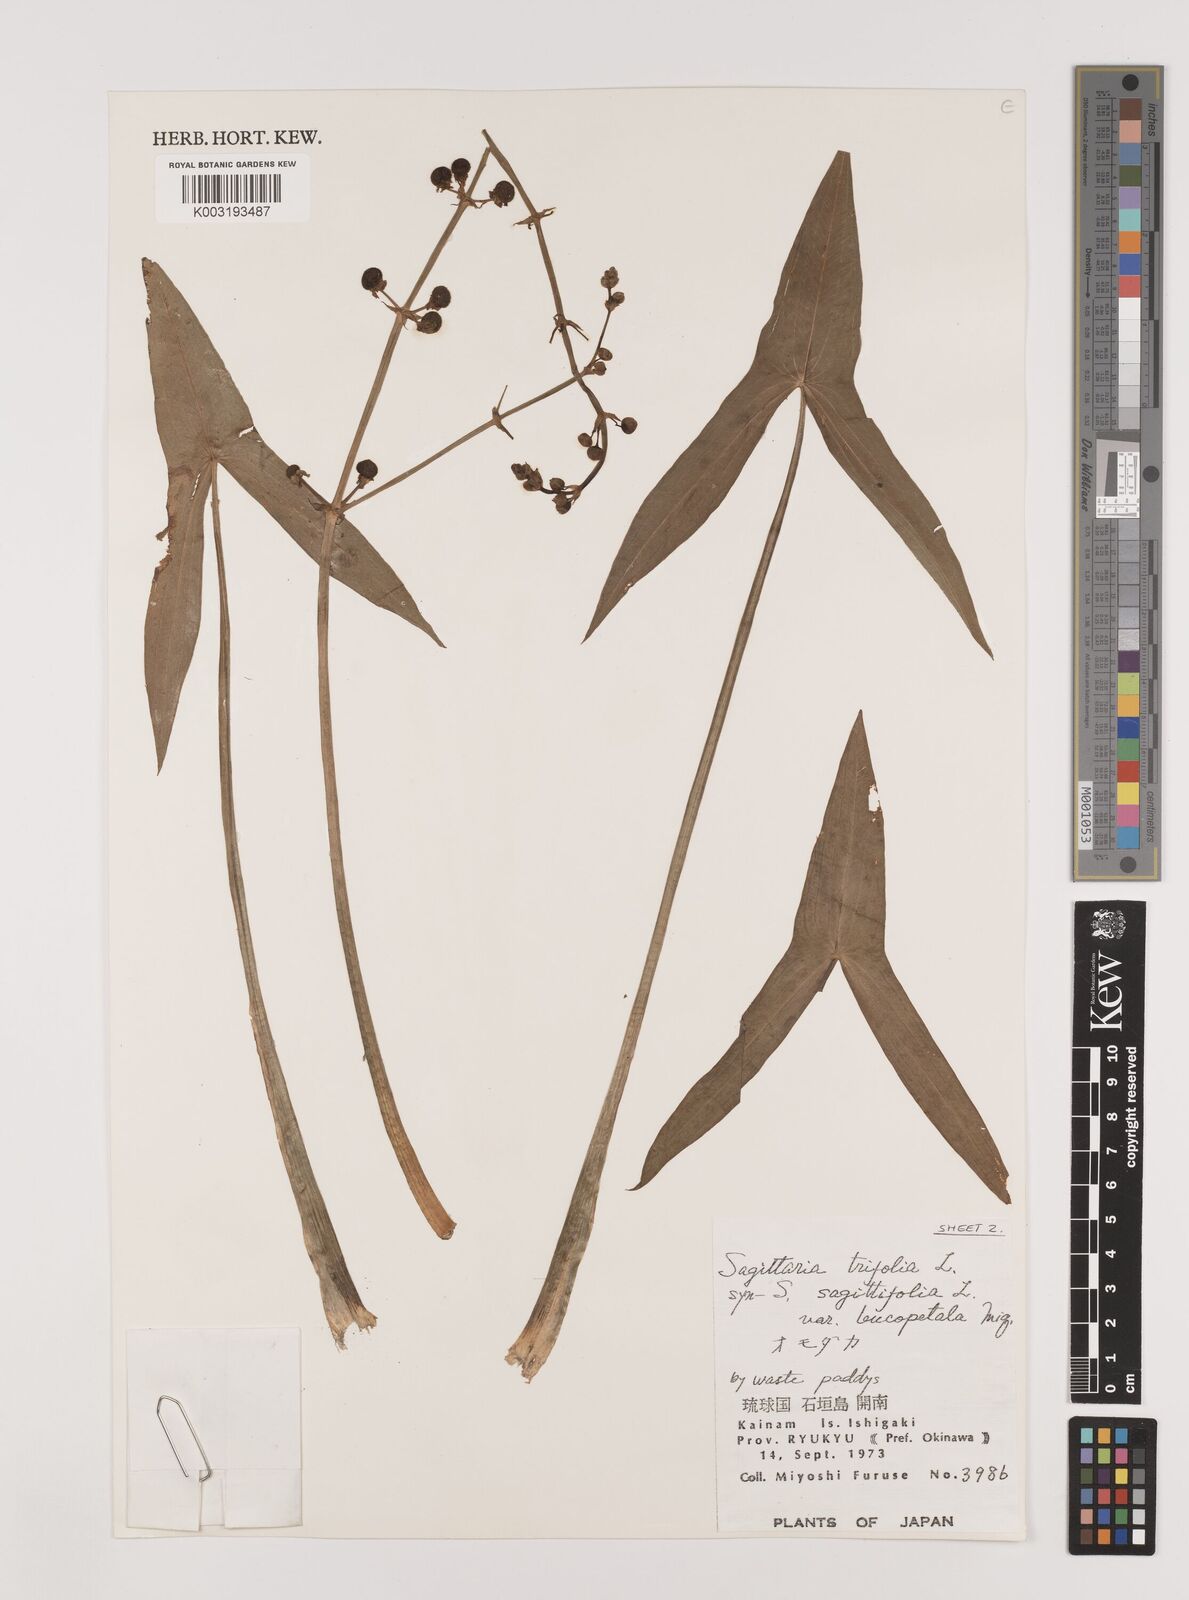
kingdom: Plantae
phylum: Tracheophyta
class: Liliopsida
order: Alismatales
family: Alismataceae
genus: Sagittaria
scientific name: Sagittaria sagittifolia
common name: Arrowhead
